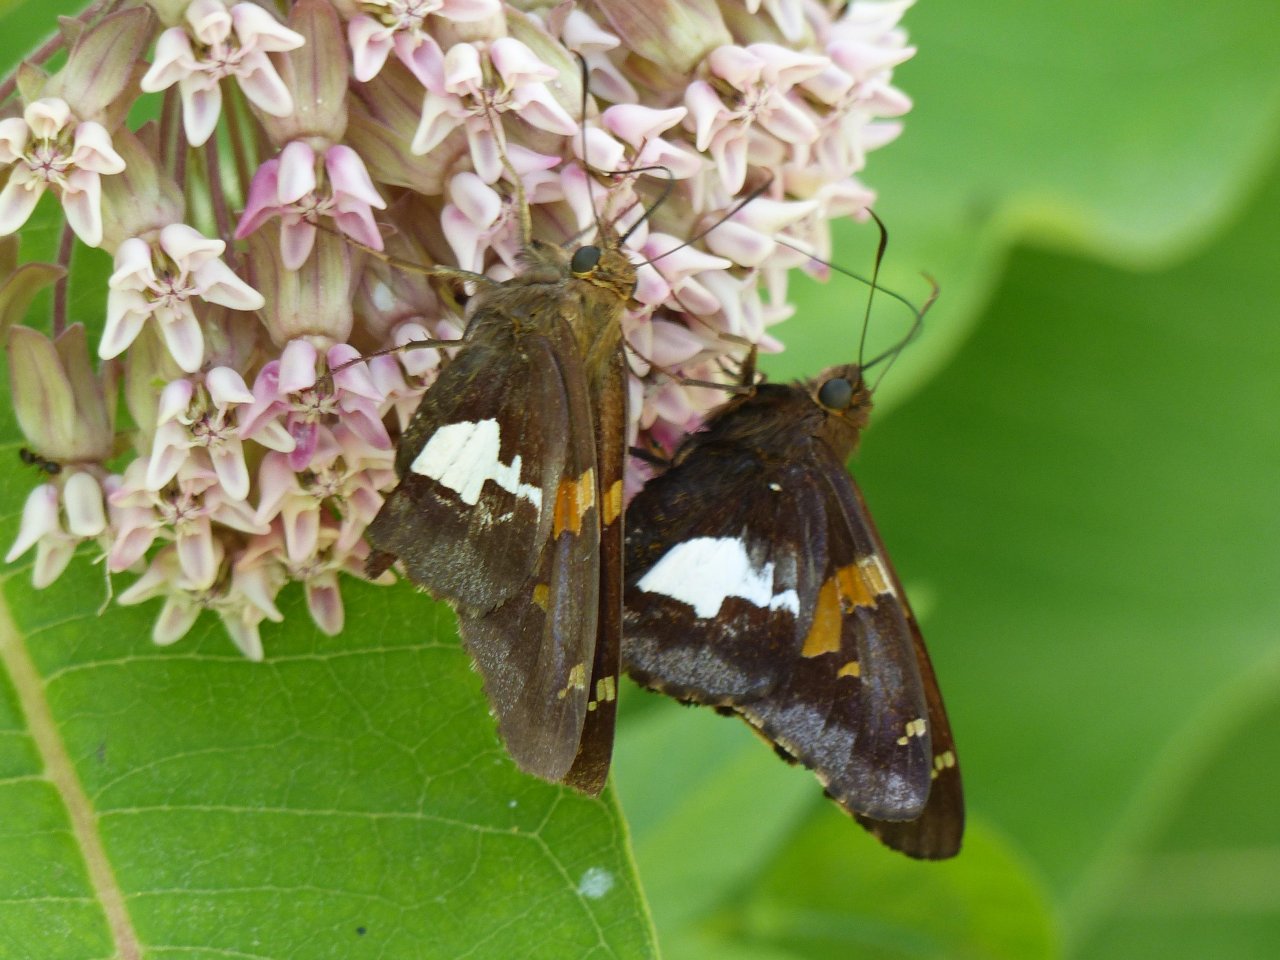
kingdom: Animalia
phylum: Arthropoda
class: Insecta
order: Lepidoptera
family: Hesperiidae
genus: Epargyreus
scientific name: Epargyreus clarus
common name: Silver-spotted Skipper
